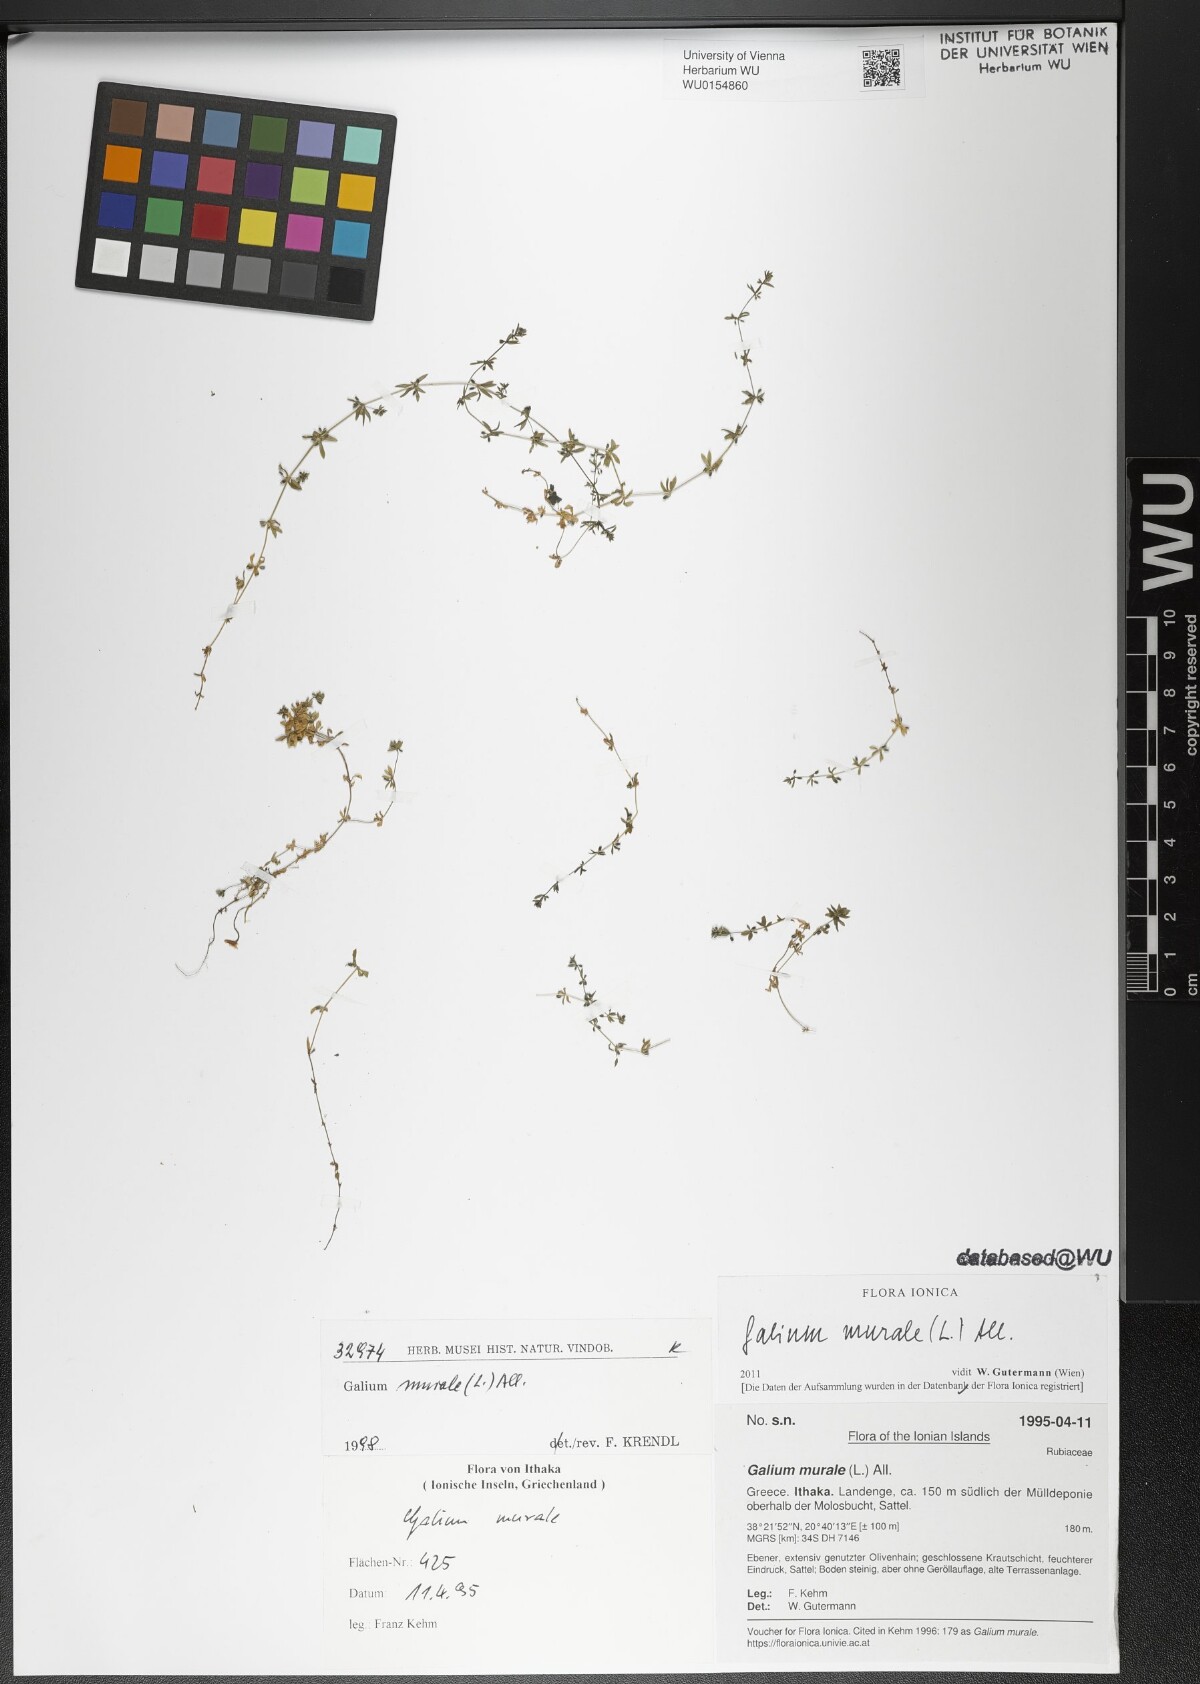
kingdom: Plantae
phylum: Tracheophyta
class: Magnoliopsida
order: Gentianales
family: Rubiaceae
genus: Galium
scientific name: Galium murale
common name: Yellow wall bedstraw
